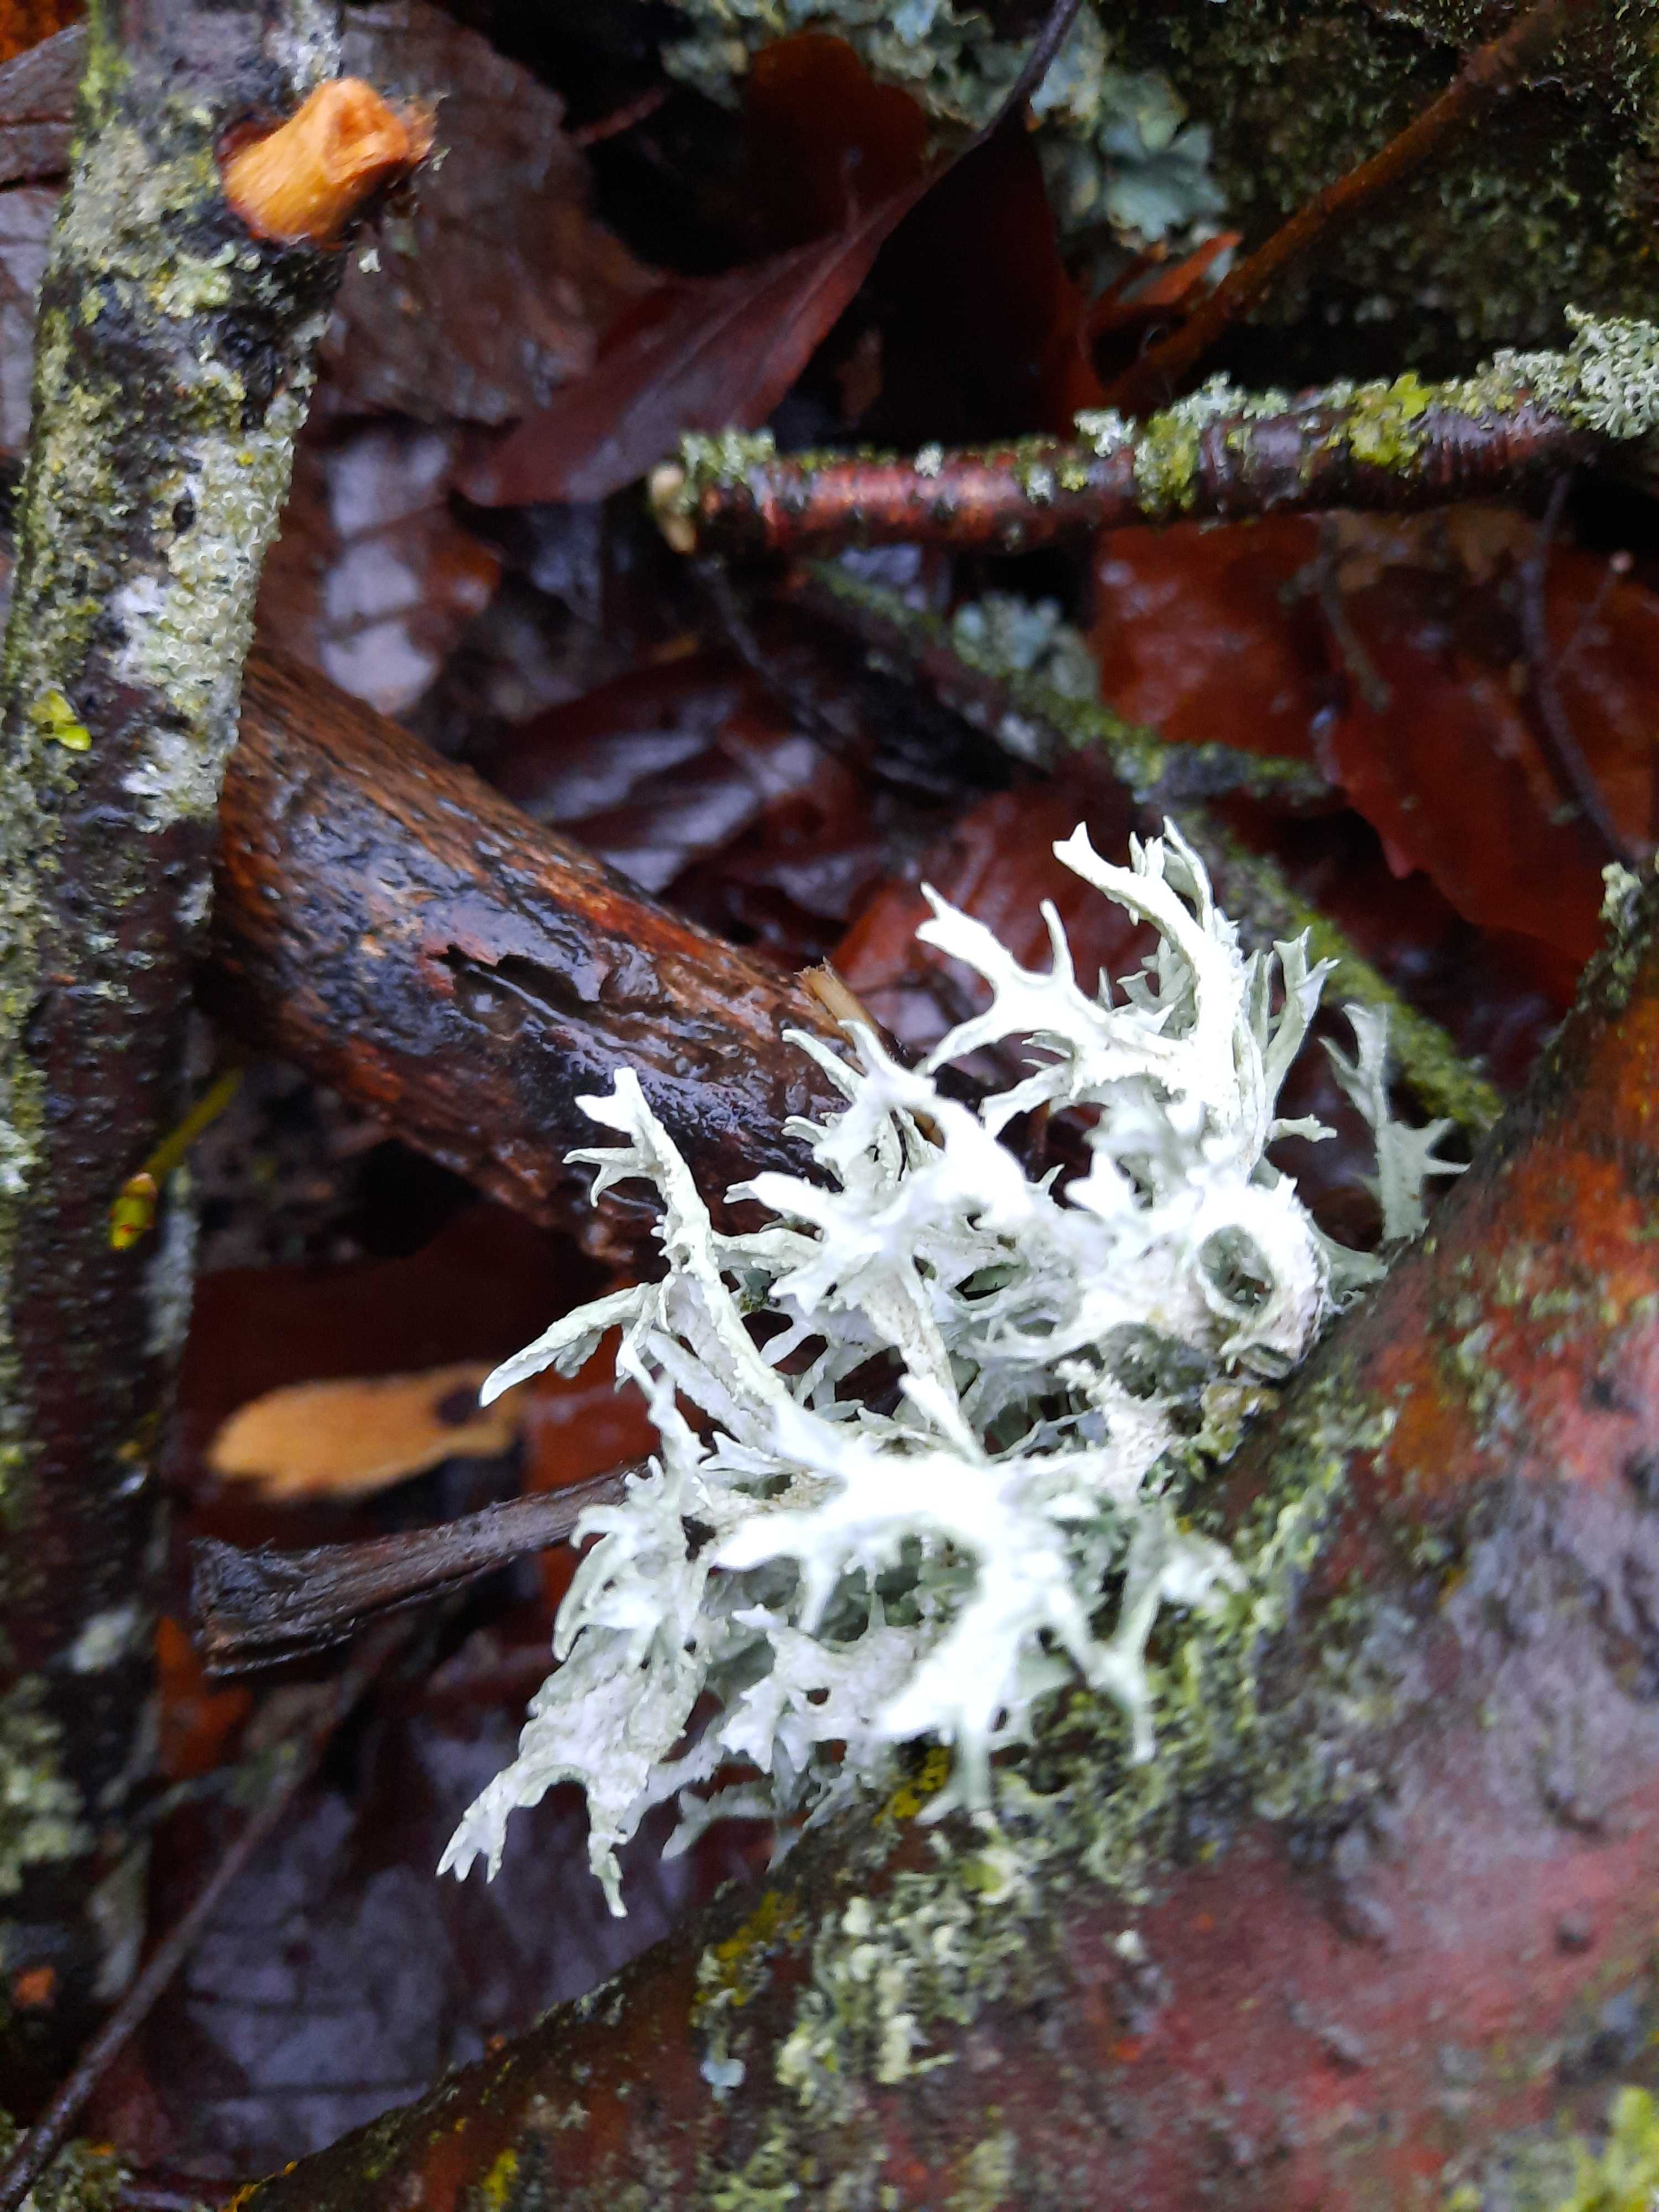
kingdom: Fungi
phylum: Ascomycota
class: Lecanoromycetes
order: Lecanorales
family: Parmeliaceae
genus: Evernia
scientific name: Evernia prunastri
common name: almindelig slåenlav
